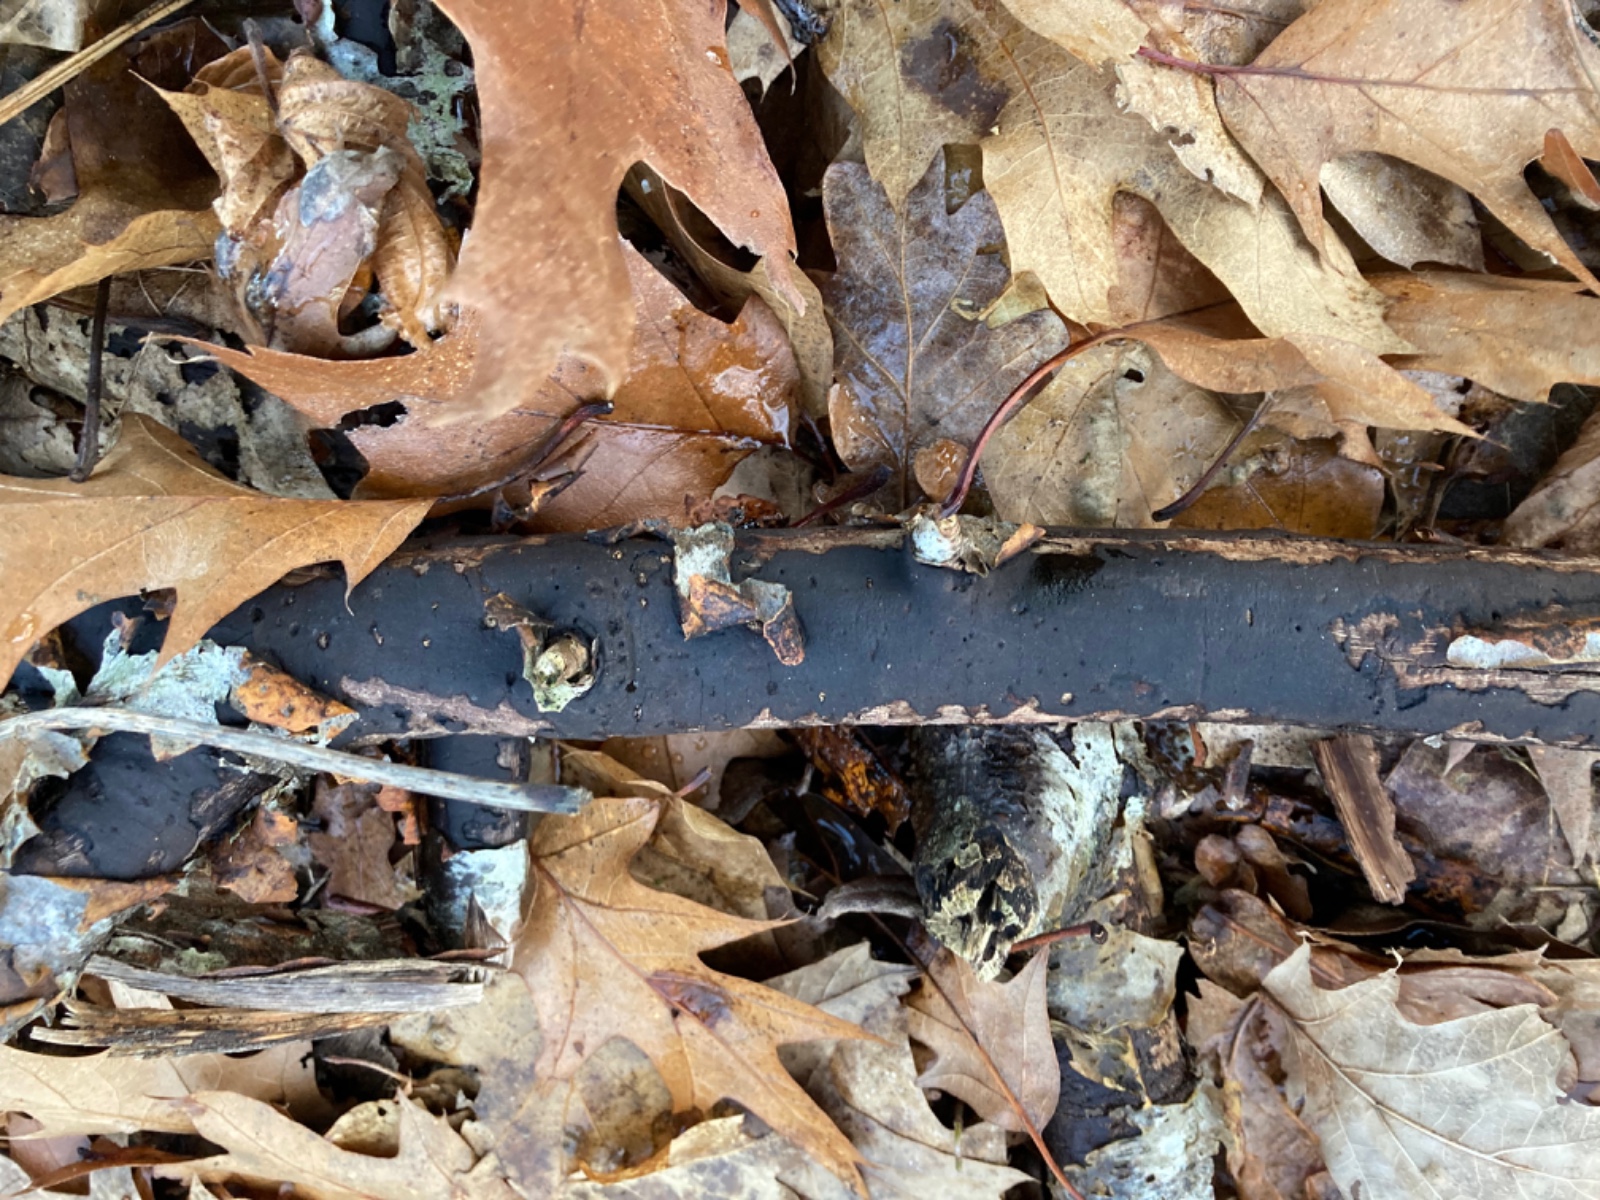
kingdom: Fungi
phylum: Ascomycota
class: Sordariomycetes
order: Xylariales
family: Diatrypaceae
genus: Diatrype
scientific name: Diatrype decorticata
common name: barksprænger-kulskorpe
